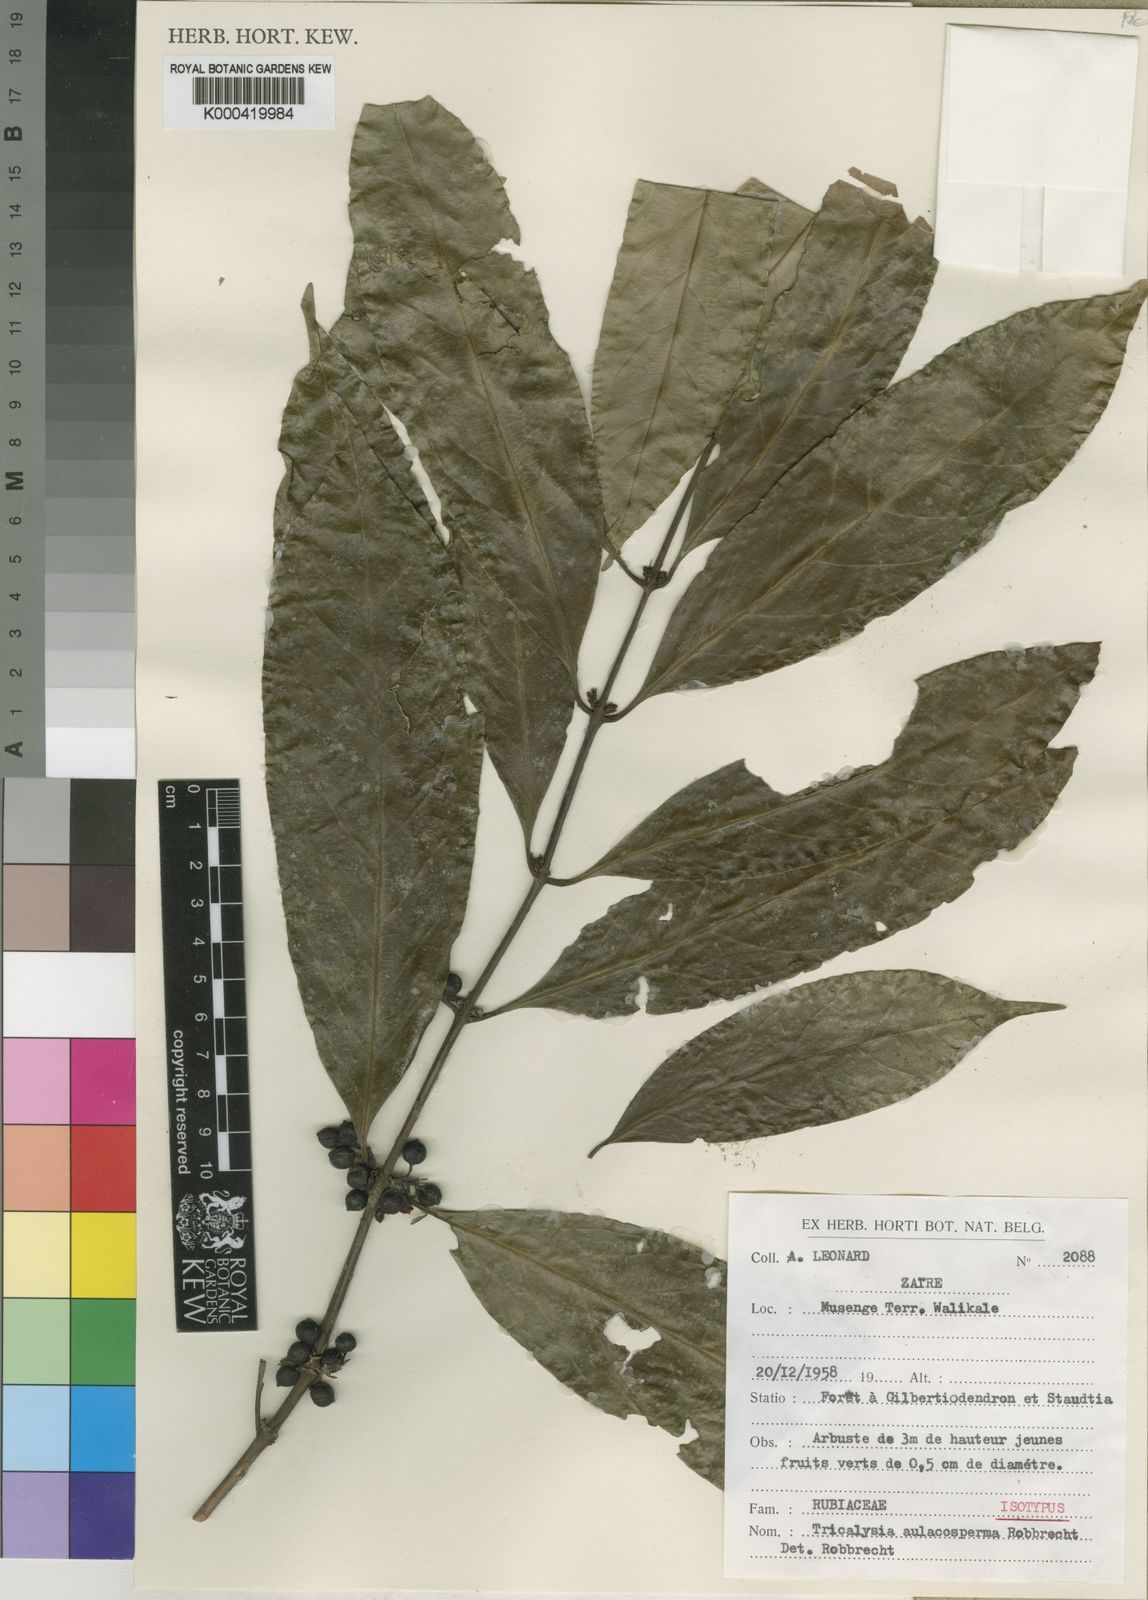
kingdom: Plantae
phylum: Tracheophyta
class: Magnoliopsida
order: Gentianales
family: Rubiaceae
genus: Empogona
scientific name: Empogona aulacosperma
